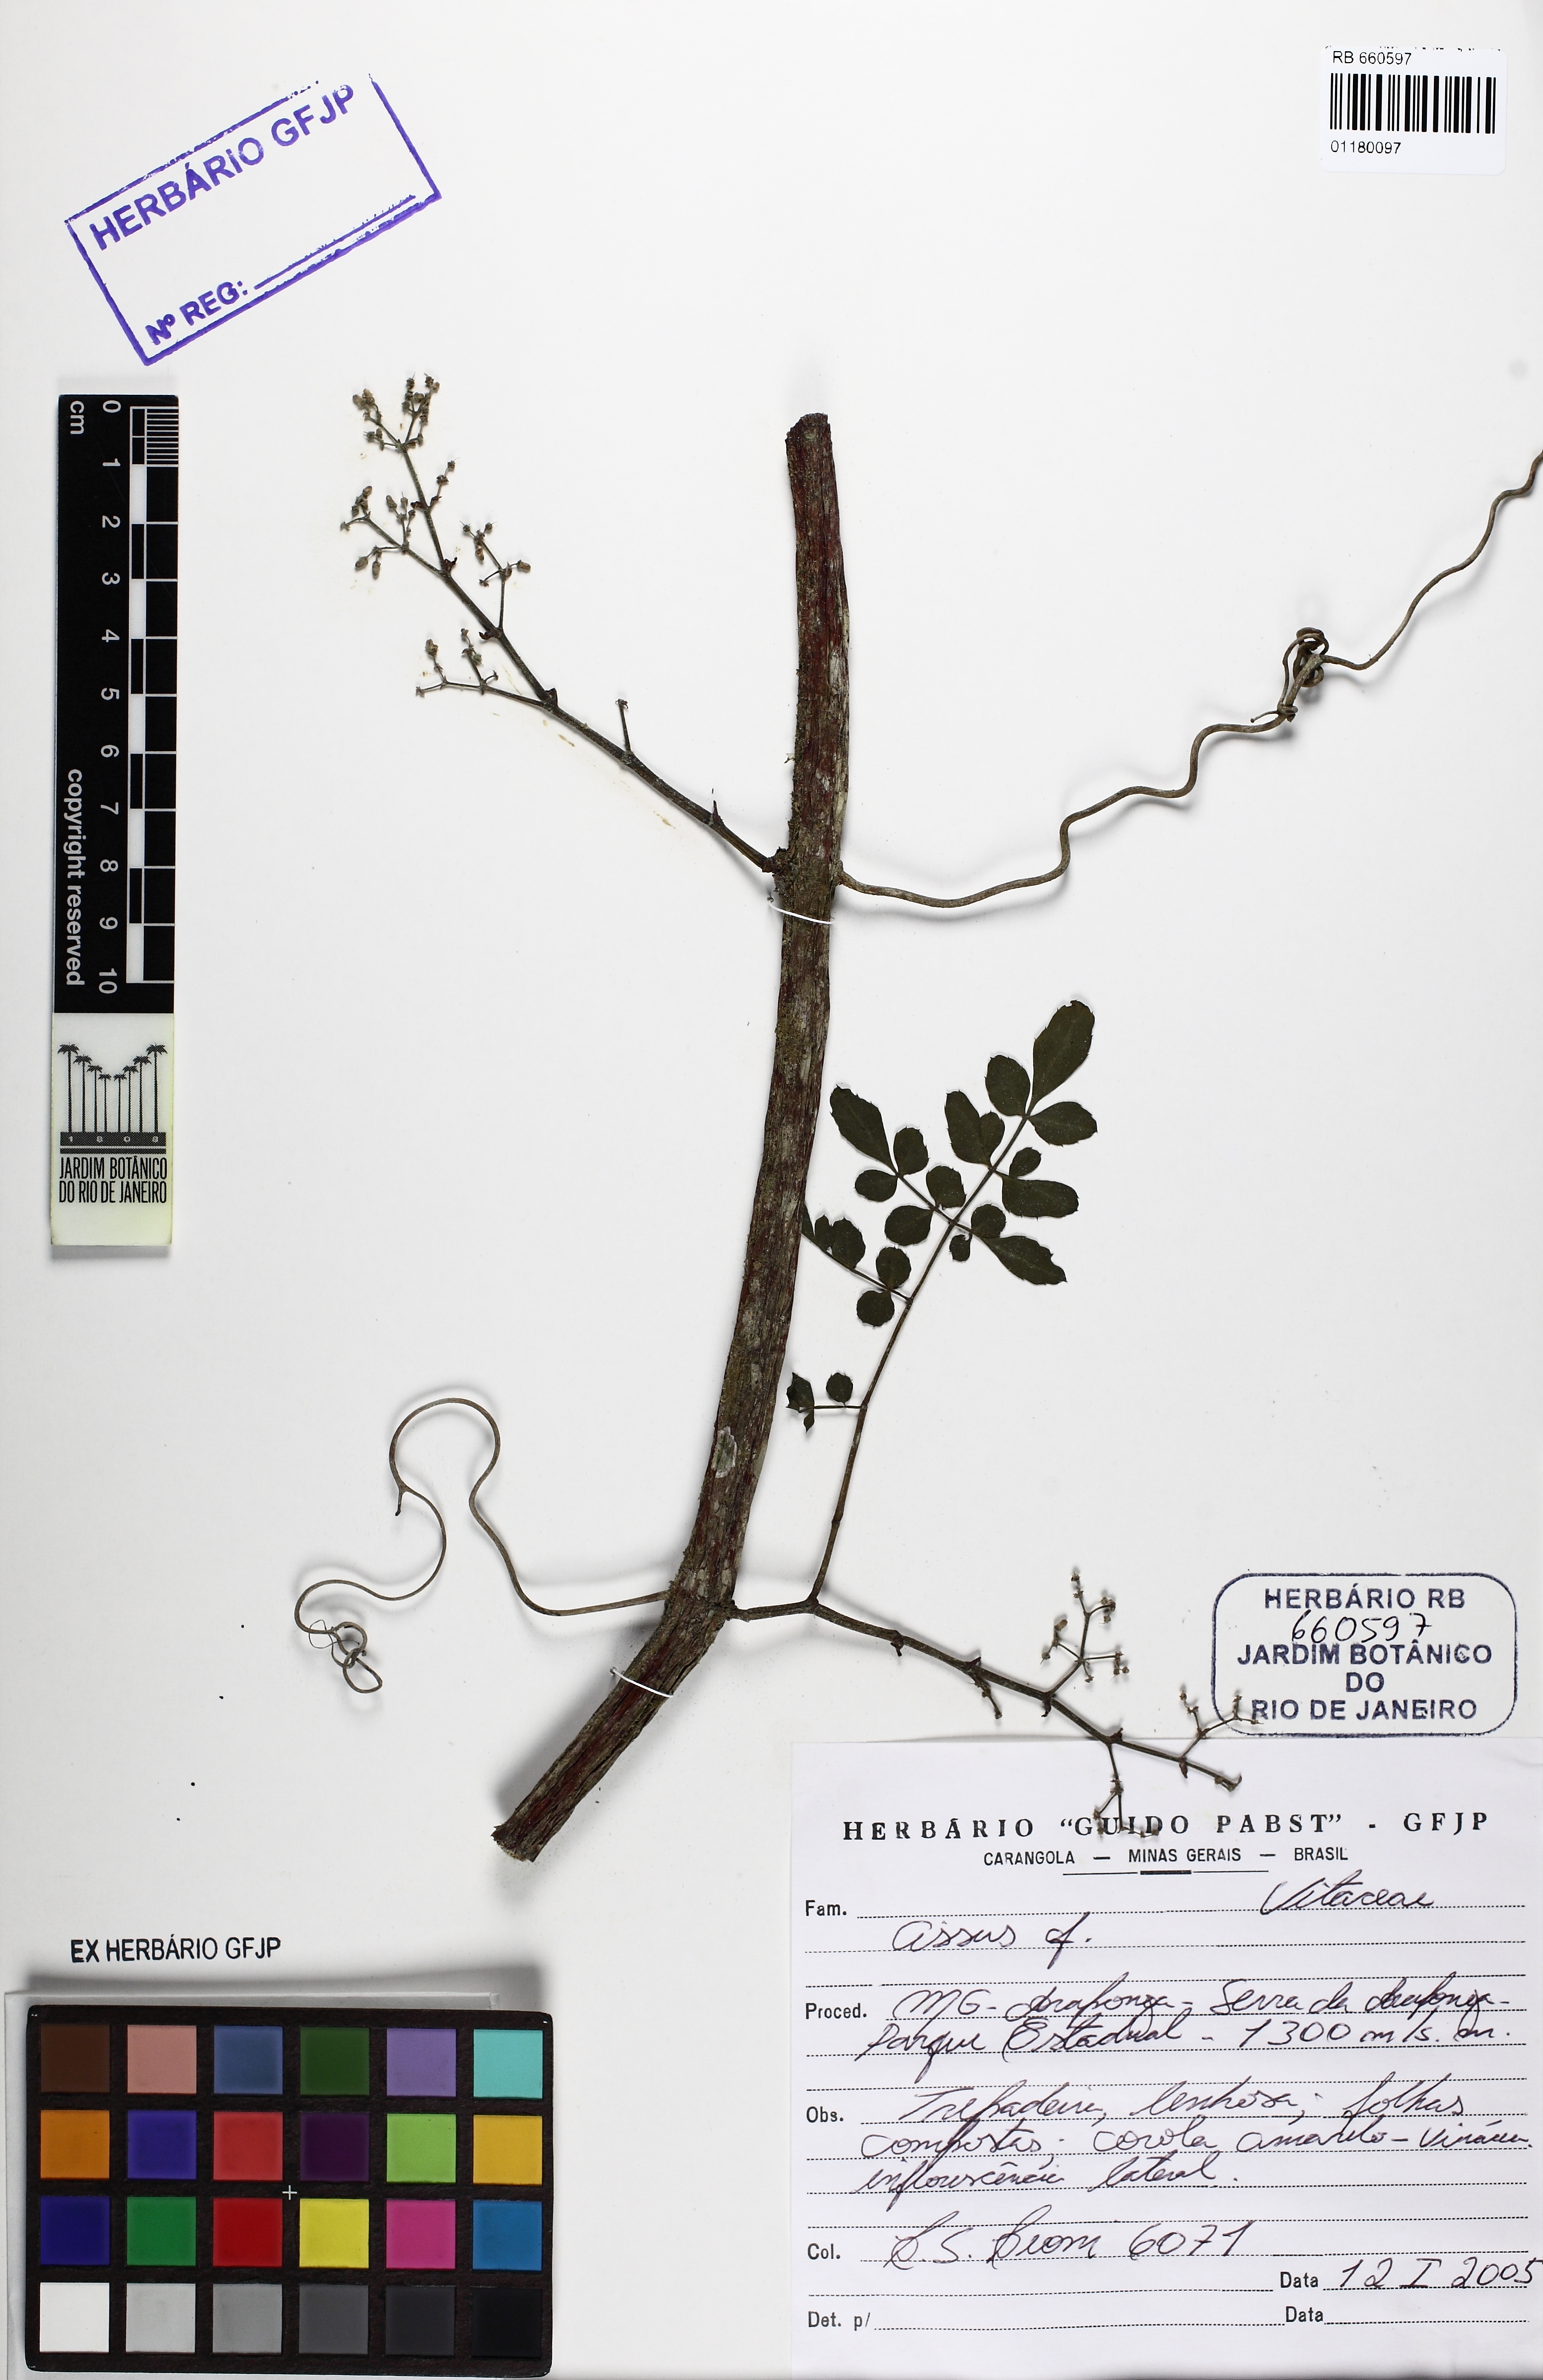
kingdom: Plantae
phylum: Tracheophyta
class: Magnoliopsida
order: Vitales
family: Vitaceae
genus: Cissus
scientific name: Cissus
